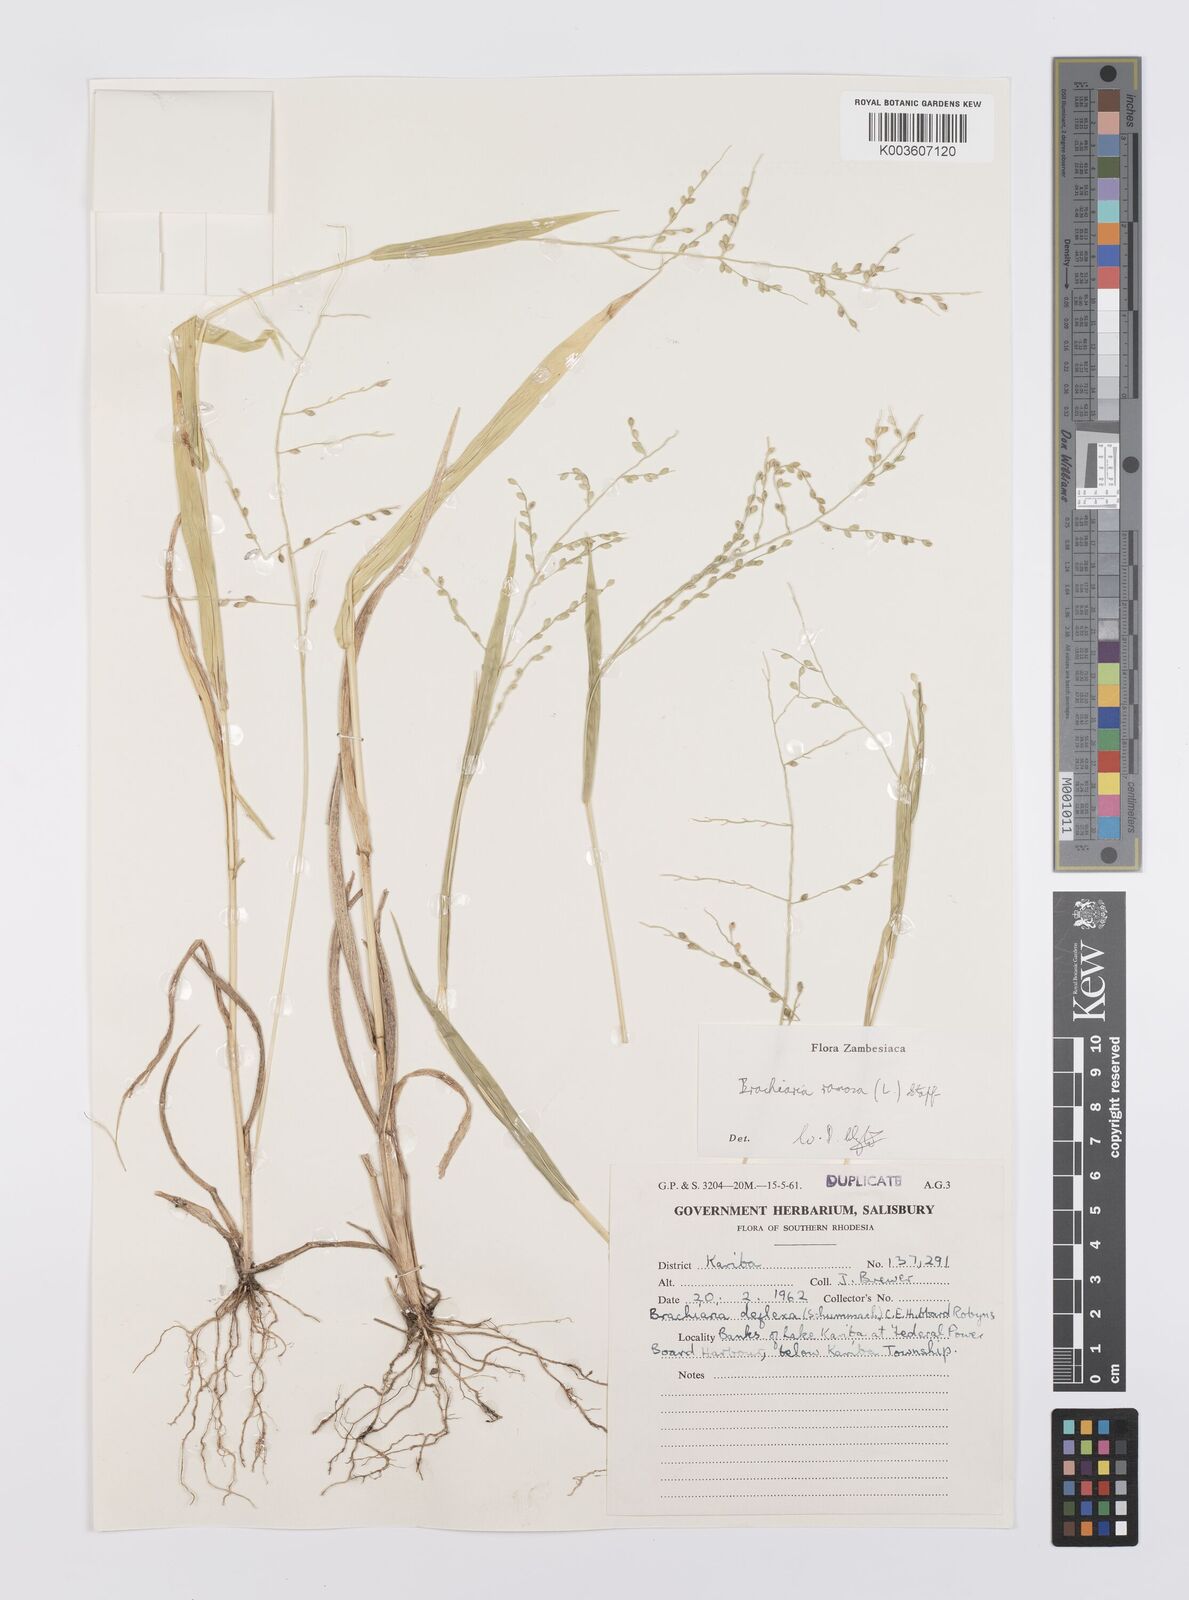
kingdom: Plantae
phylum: Tracheophyta
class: Liliopsida
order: Poales
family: Poaceae
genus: Urochloa
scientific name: Urochloa ramosa
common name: Browntop millet
